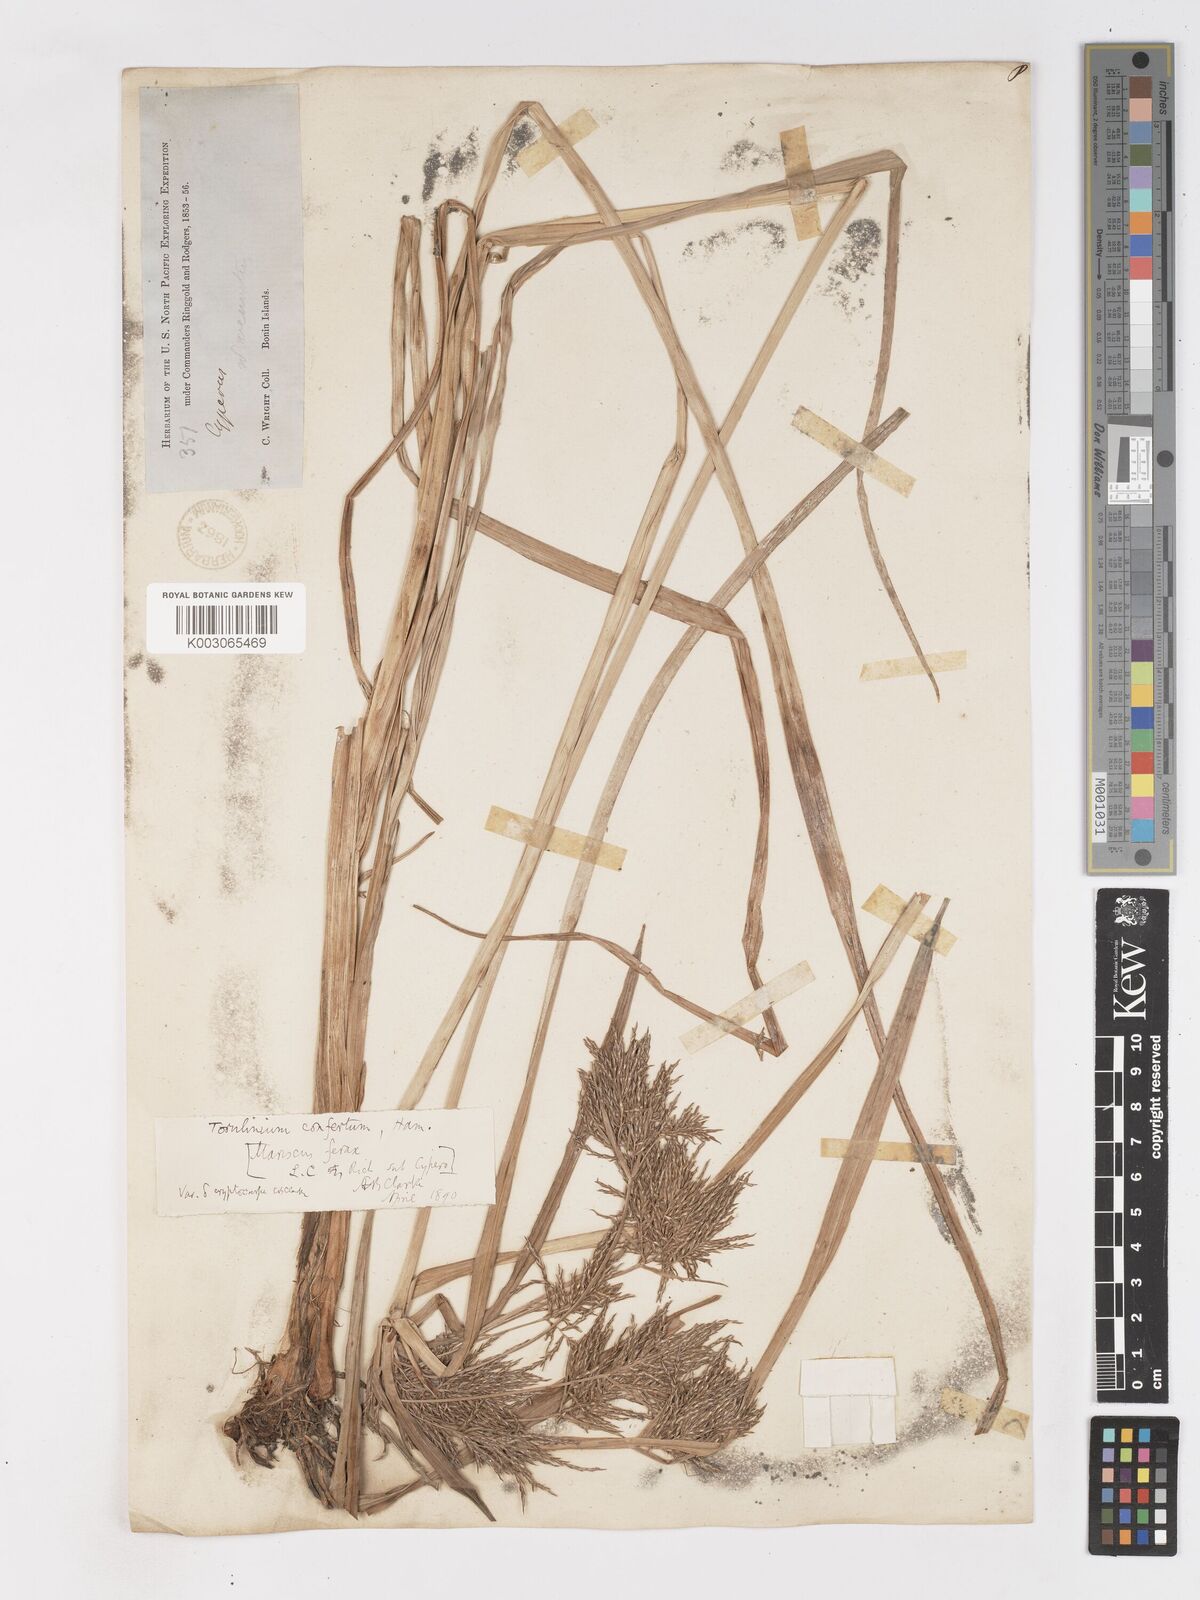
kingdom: Plantae
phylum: Tracheophyta
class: Liliopsida
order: Poales
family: Cyperaceae
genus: Cyperus
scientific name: Cyperus odoratus
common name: Fragrant flatsedge
